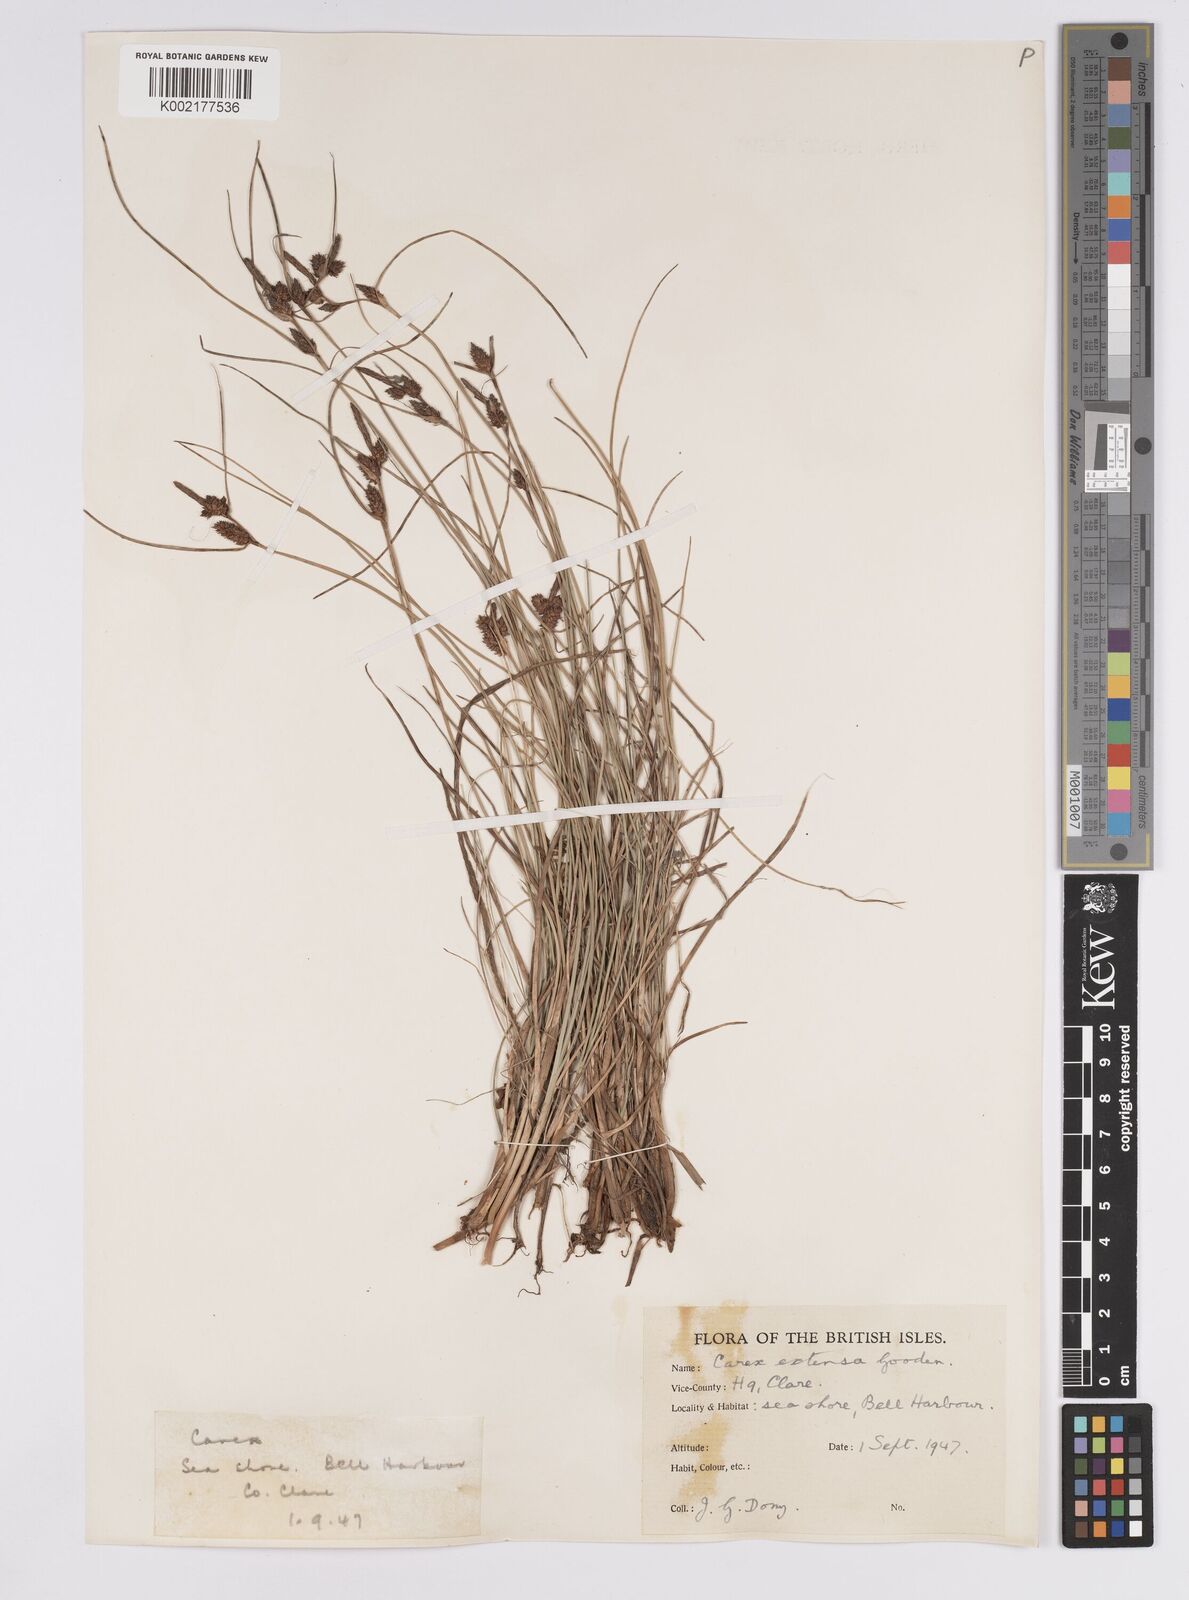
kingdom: Plantae
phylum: Tracheophyta
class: Liliopsida
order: Poales
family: Cyperaceae
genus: Carex
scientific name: Carex extensa
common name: Long-bracted sedge
